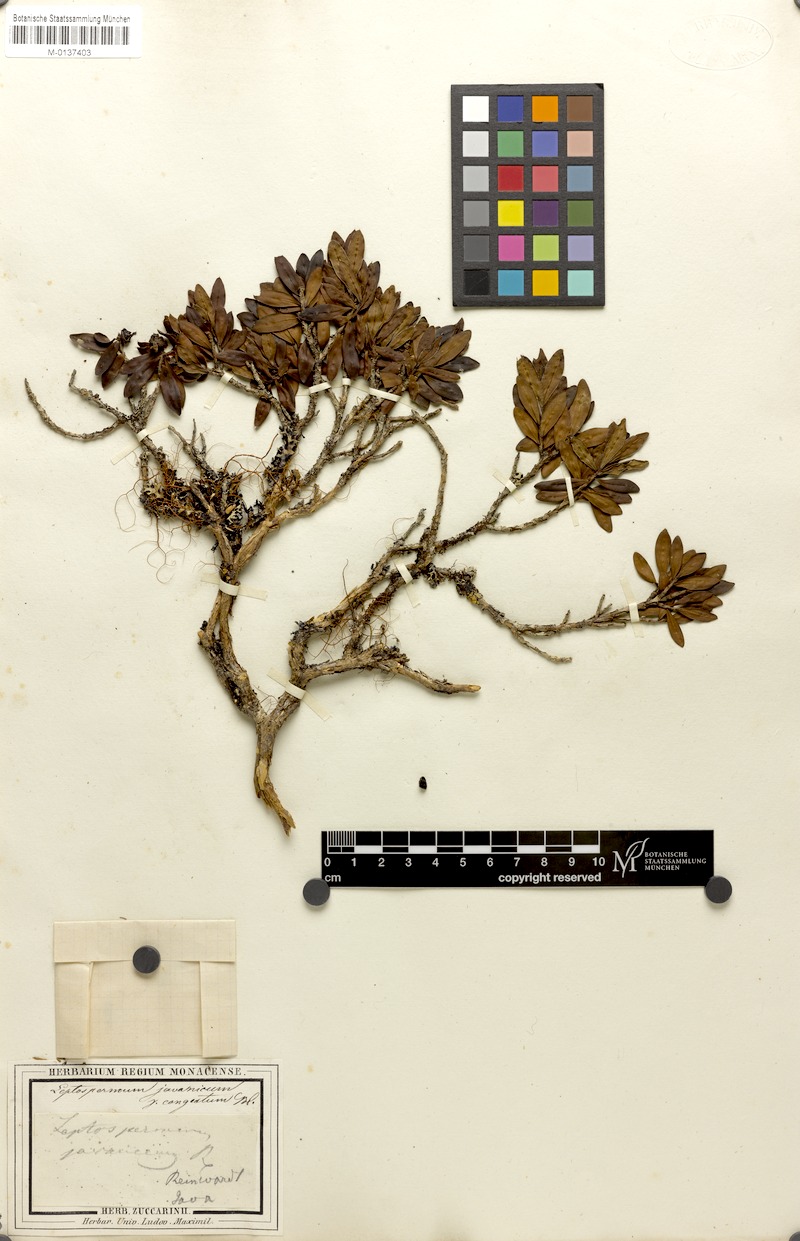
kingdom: Plantae
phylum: Tracheophyta
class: Magnoliopsida
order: Myrtales
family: Myrtaceae
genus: Leptospermum
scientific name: Leptospermum javanicum
